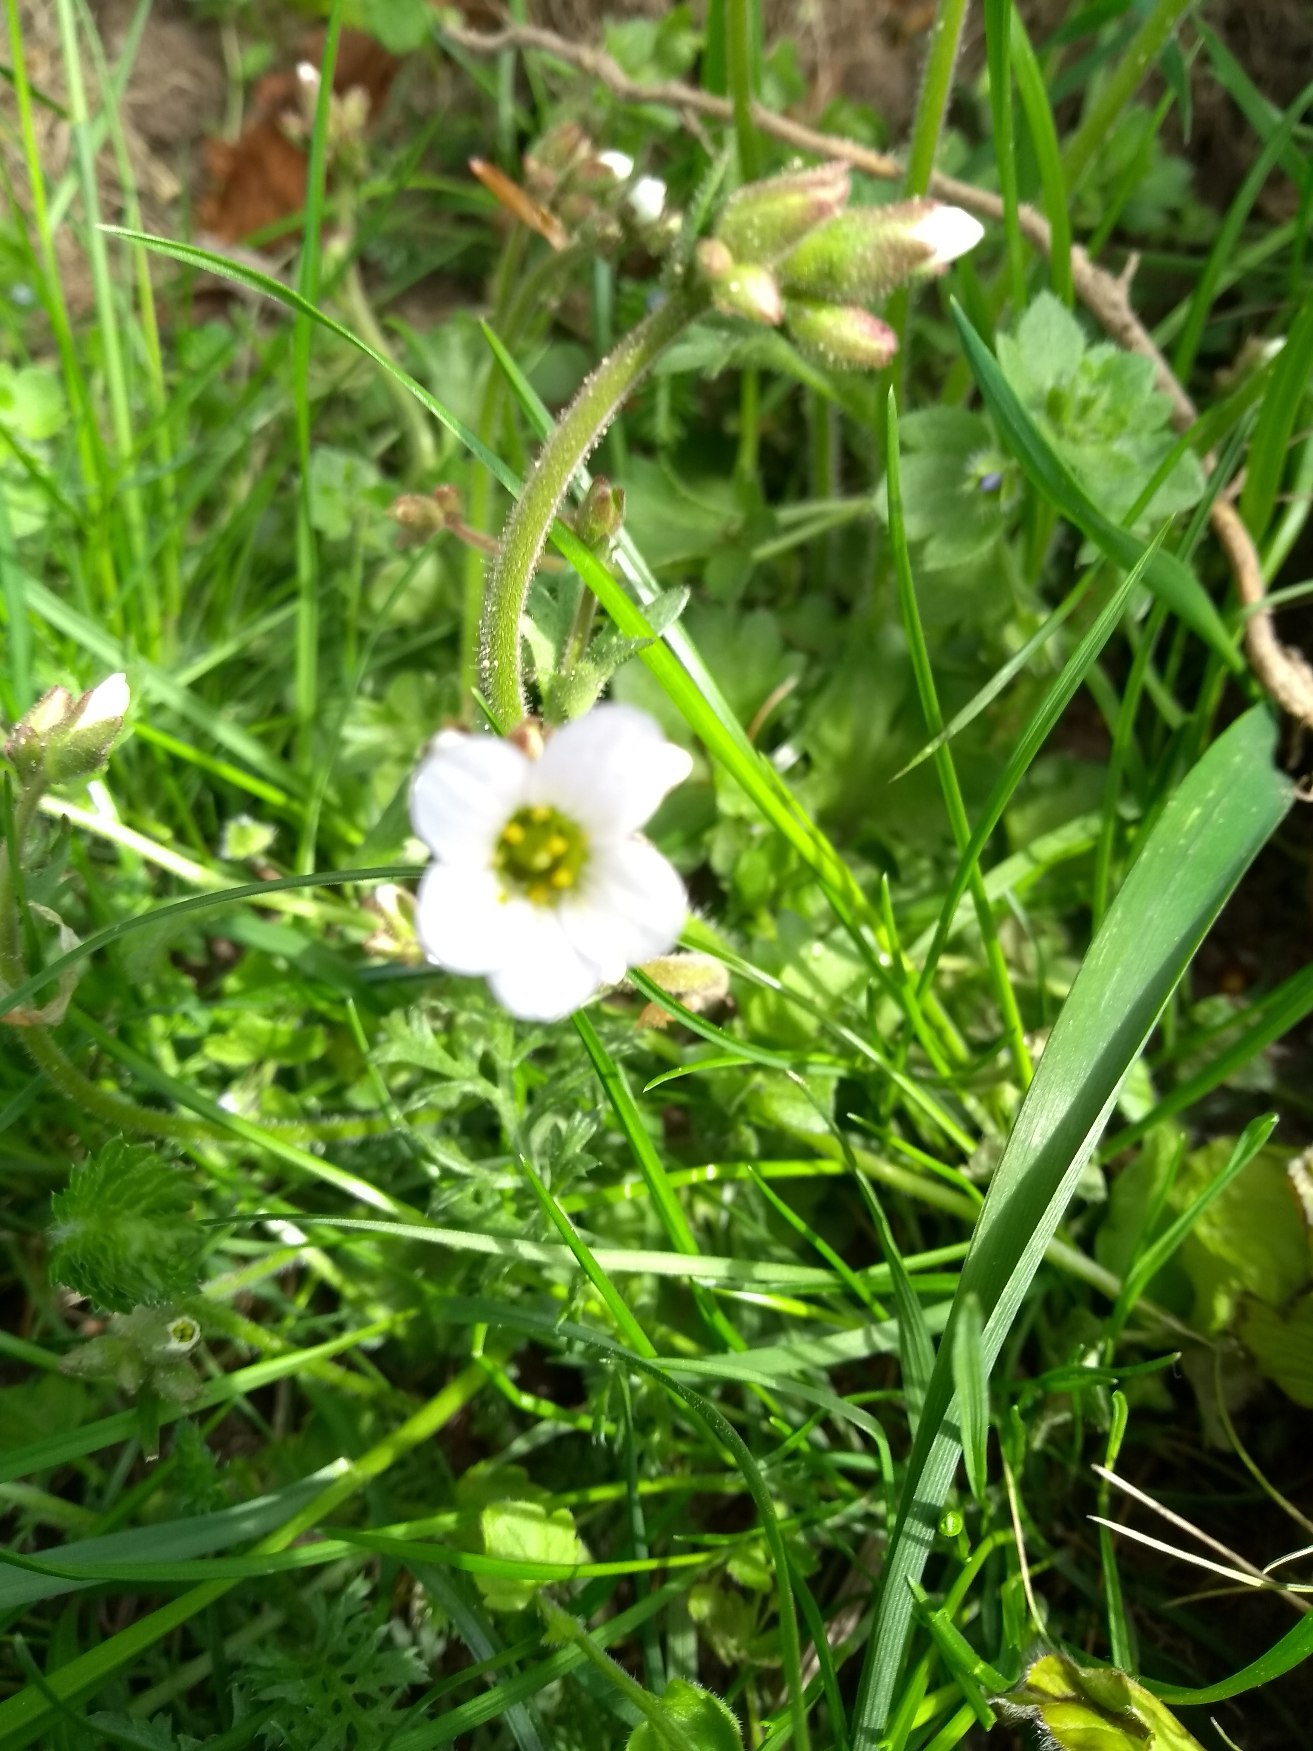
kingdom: Plantae
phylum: Tracheophyta
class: Magnoliopsida
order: Saxifragales
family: Saxifragaceae
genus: Saxifraga
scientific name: Saxifraga granulata
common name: Kornet stenbræk
